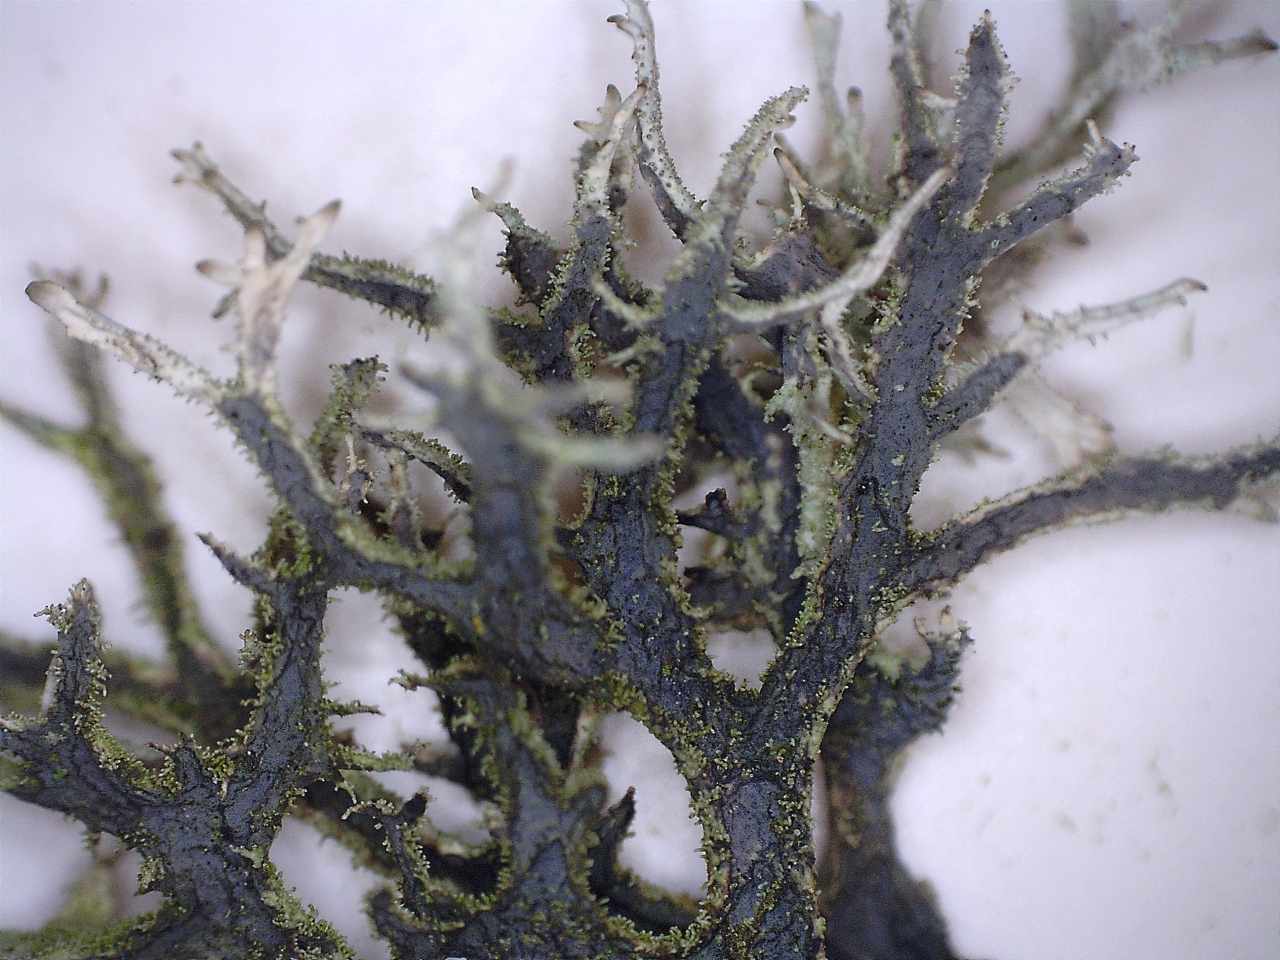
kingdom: Fungi
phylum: Ascomycota
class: Lecanoromycetes
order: Lecanorales
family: Parmeliaceae
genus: Pseudevernia
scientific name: Pseudevernia furfuracea
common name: grå fyrrelav
